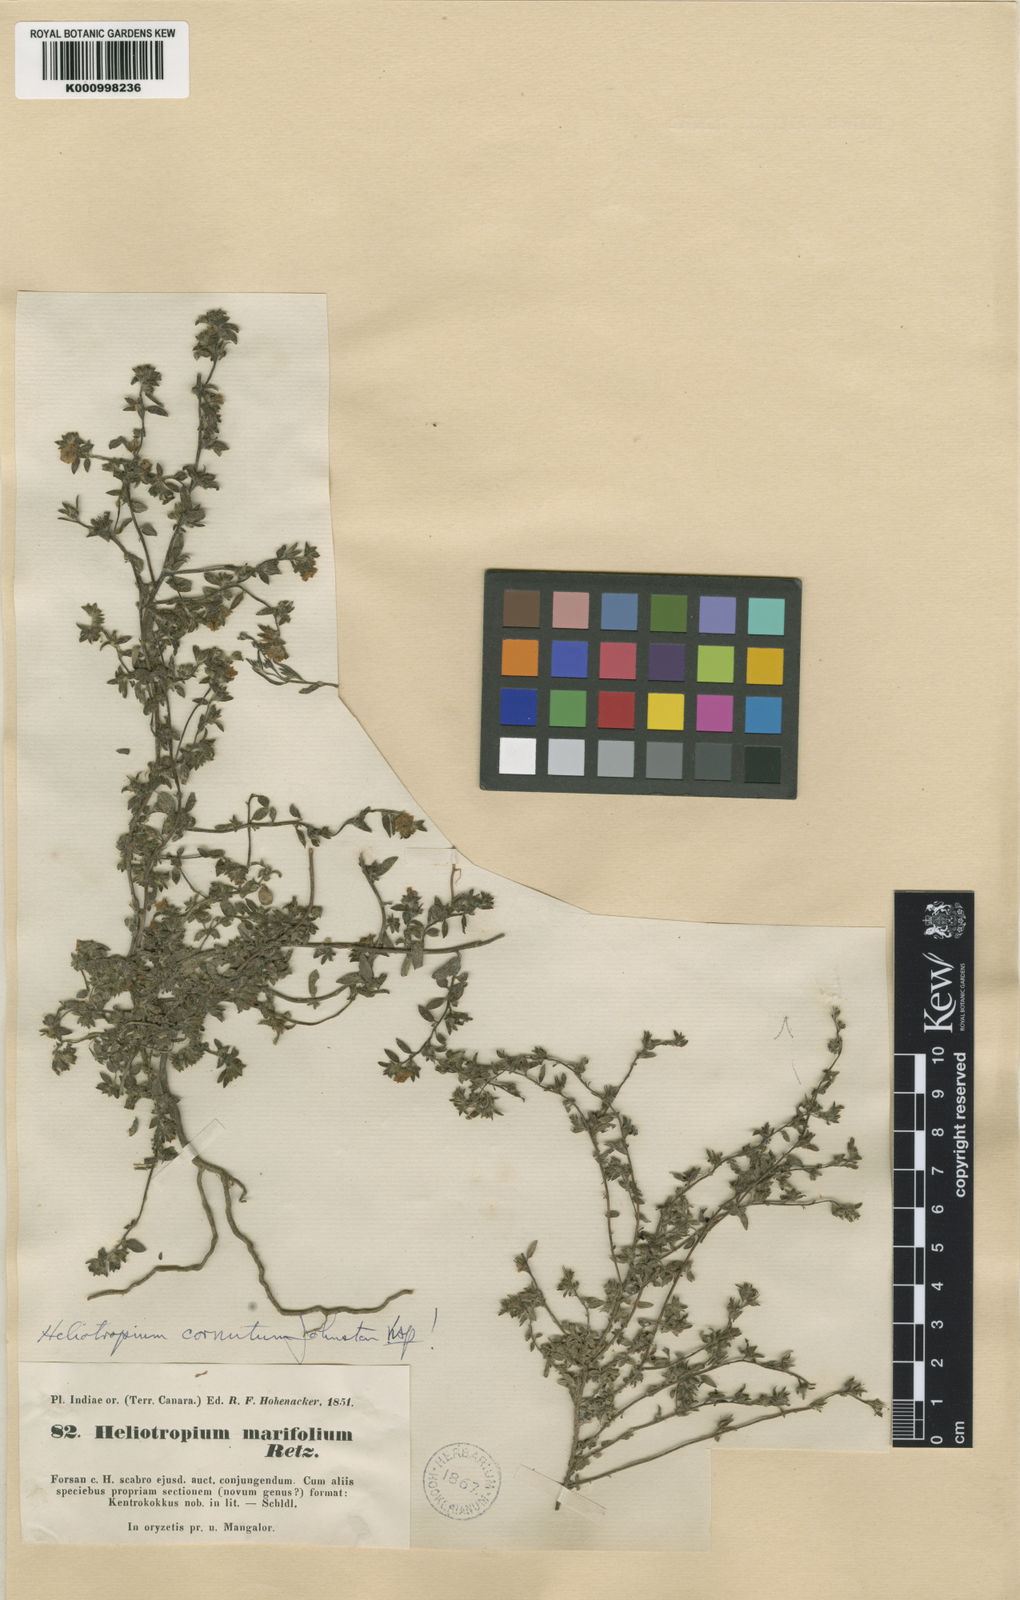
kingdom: Plantae
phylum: Tracheophyta
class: Magnoliopsida
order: Boraginales
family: Heliotropiaceae
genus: Euploca
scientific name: Euploca cornuta
